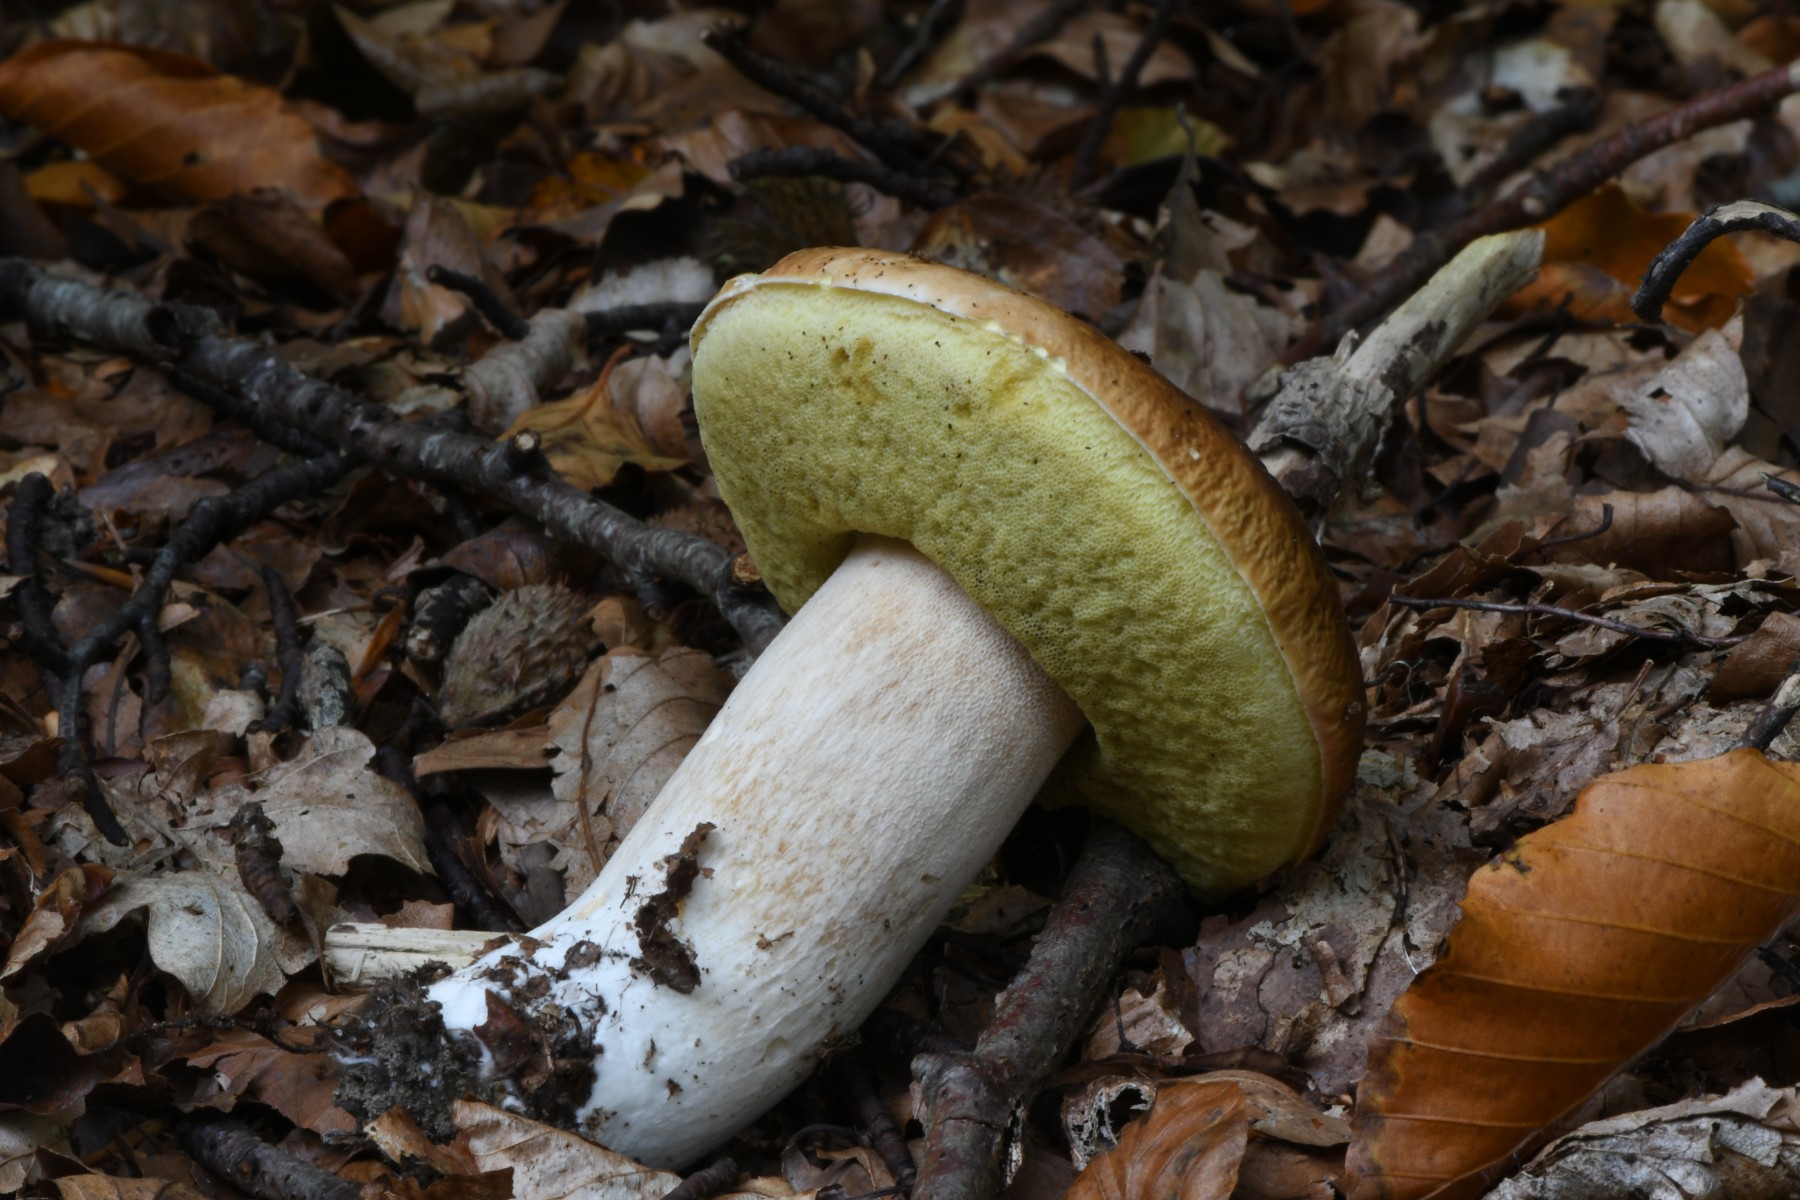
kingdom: Fungi
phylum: Basidiomycota
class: Agaricomycetes
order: Boletales
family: Boletaceae
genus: Boletus
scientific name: Boletus edulis
